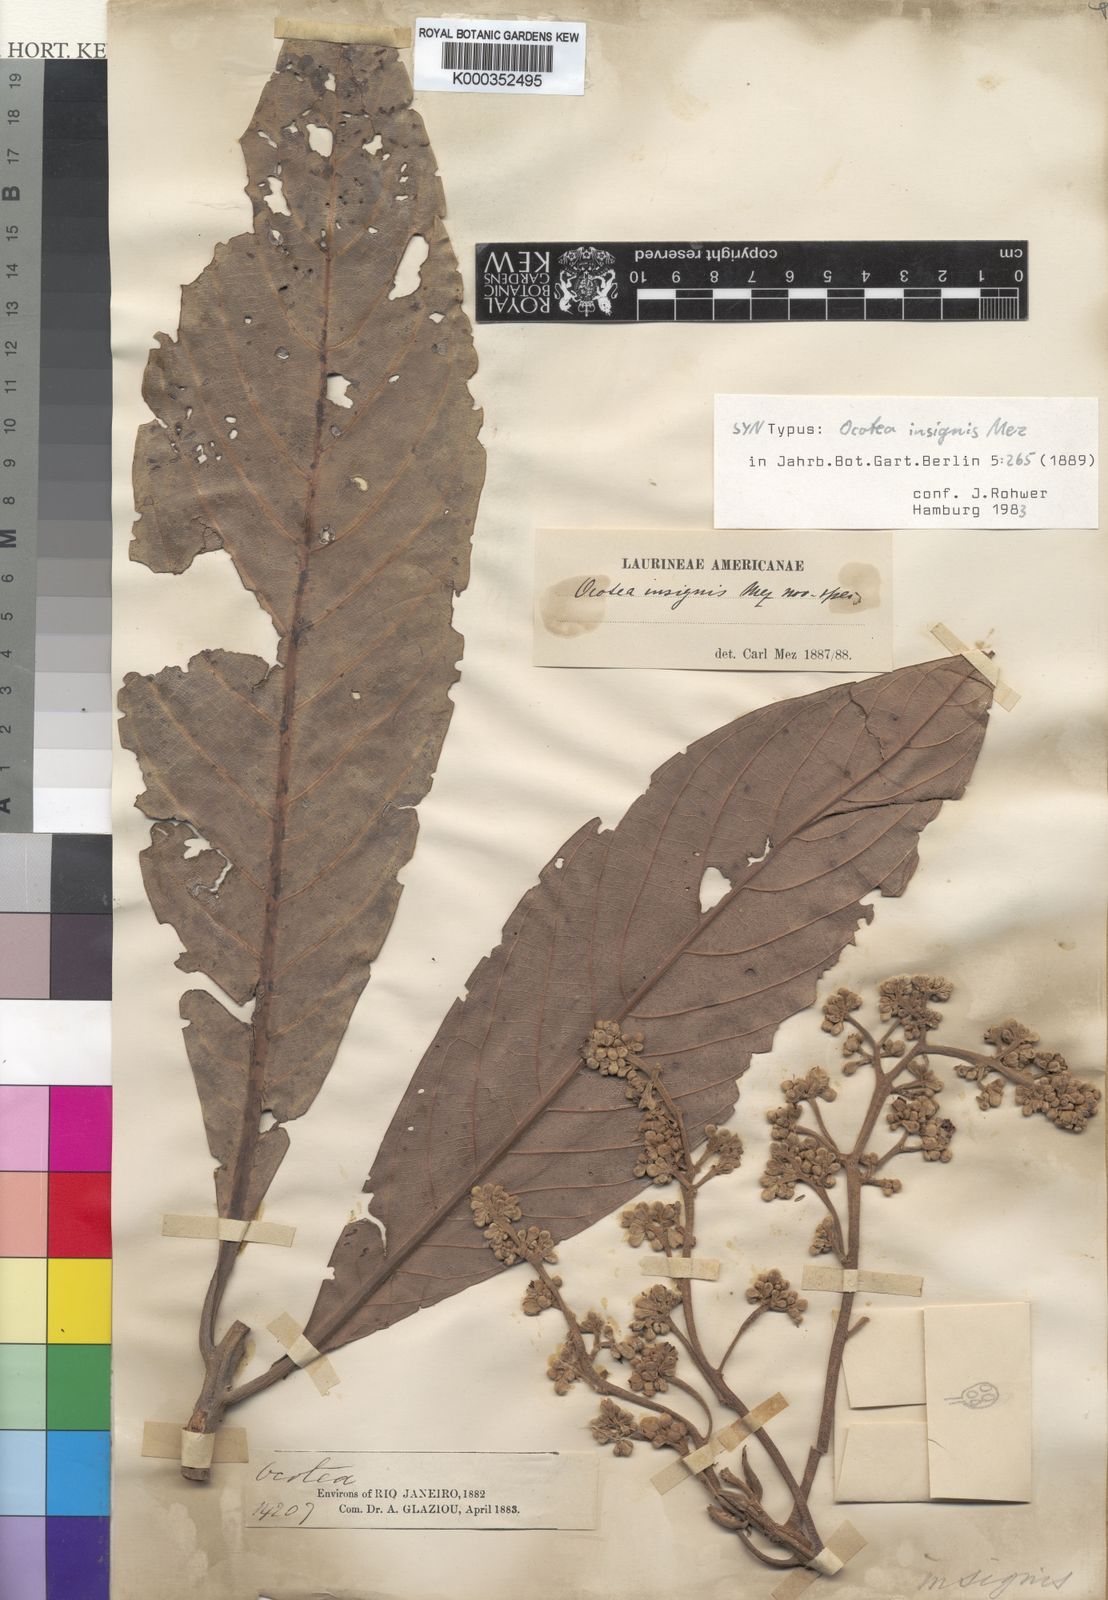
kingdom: Plantae
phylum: Tracheophyta
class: Magnoliopsida
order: Laurales
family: Lauraceae
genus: Ocotea
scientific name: Ocotea insignis
